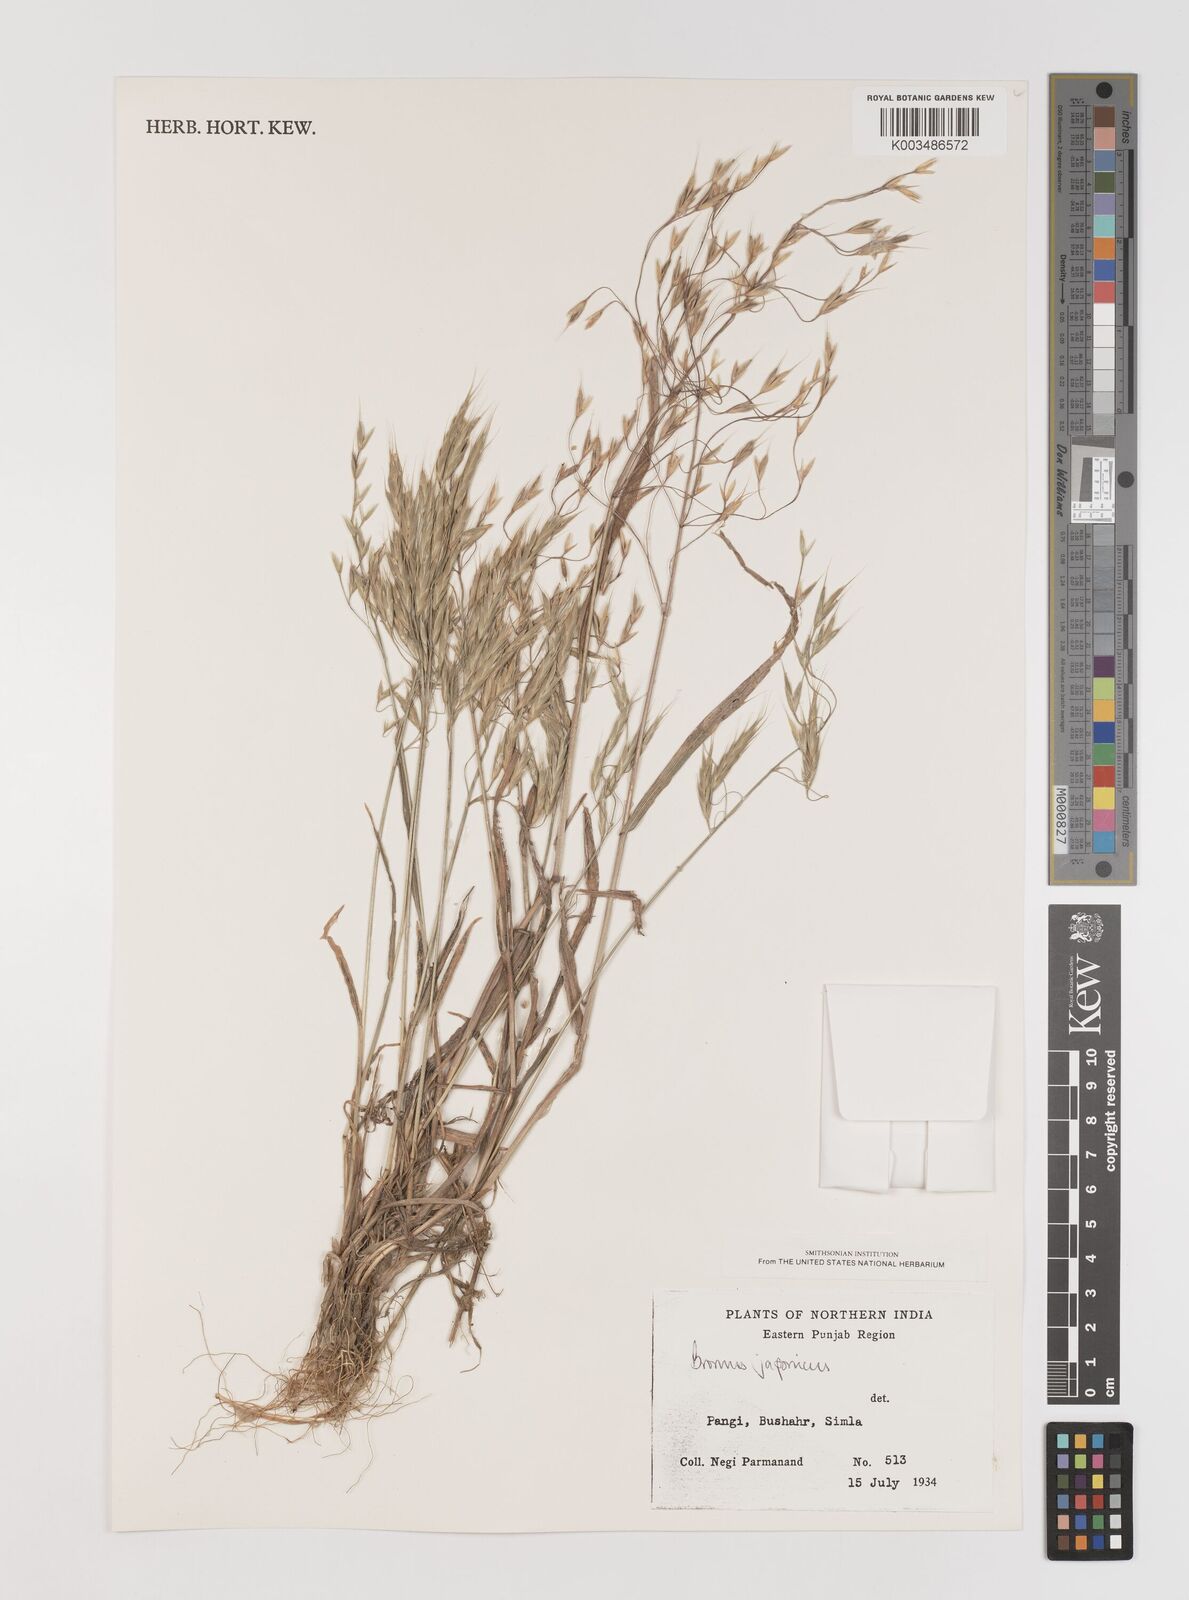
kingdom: Plantae
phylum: Tracheophyta
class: Liliopsida
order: Poales
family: Poaceae
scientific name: Poaceae
